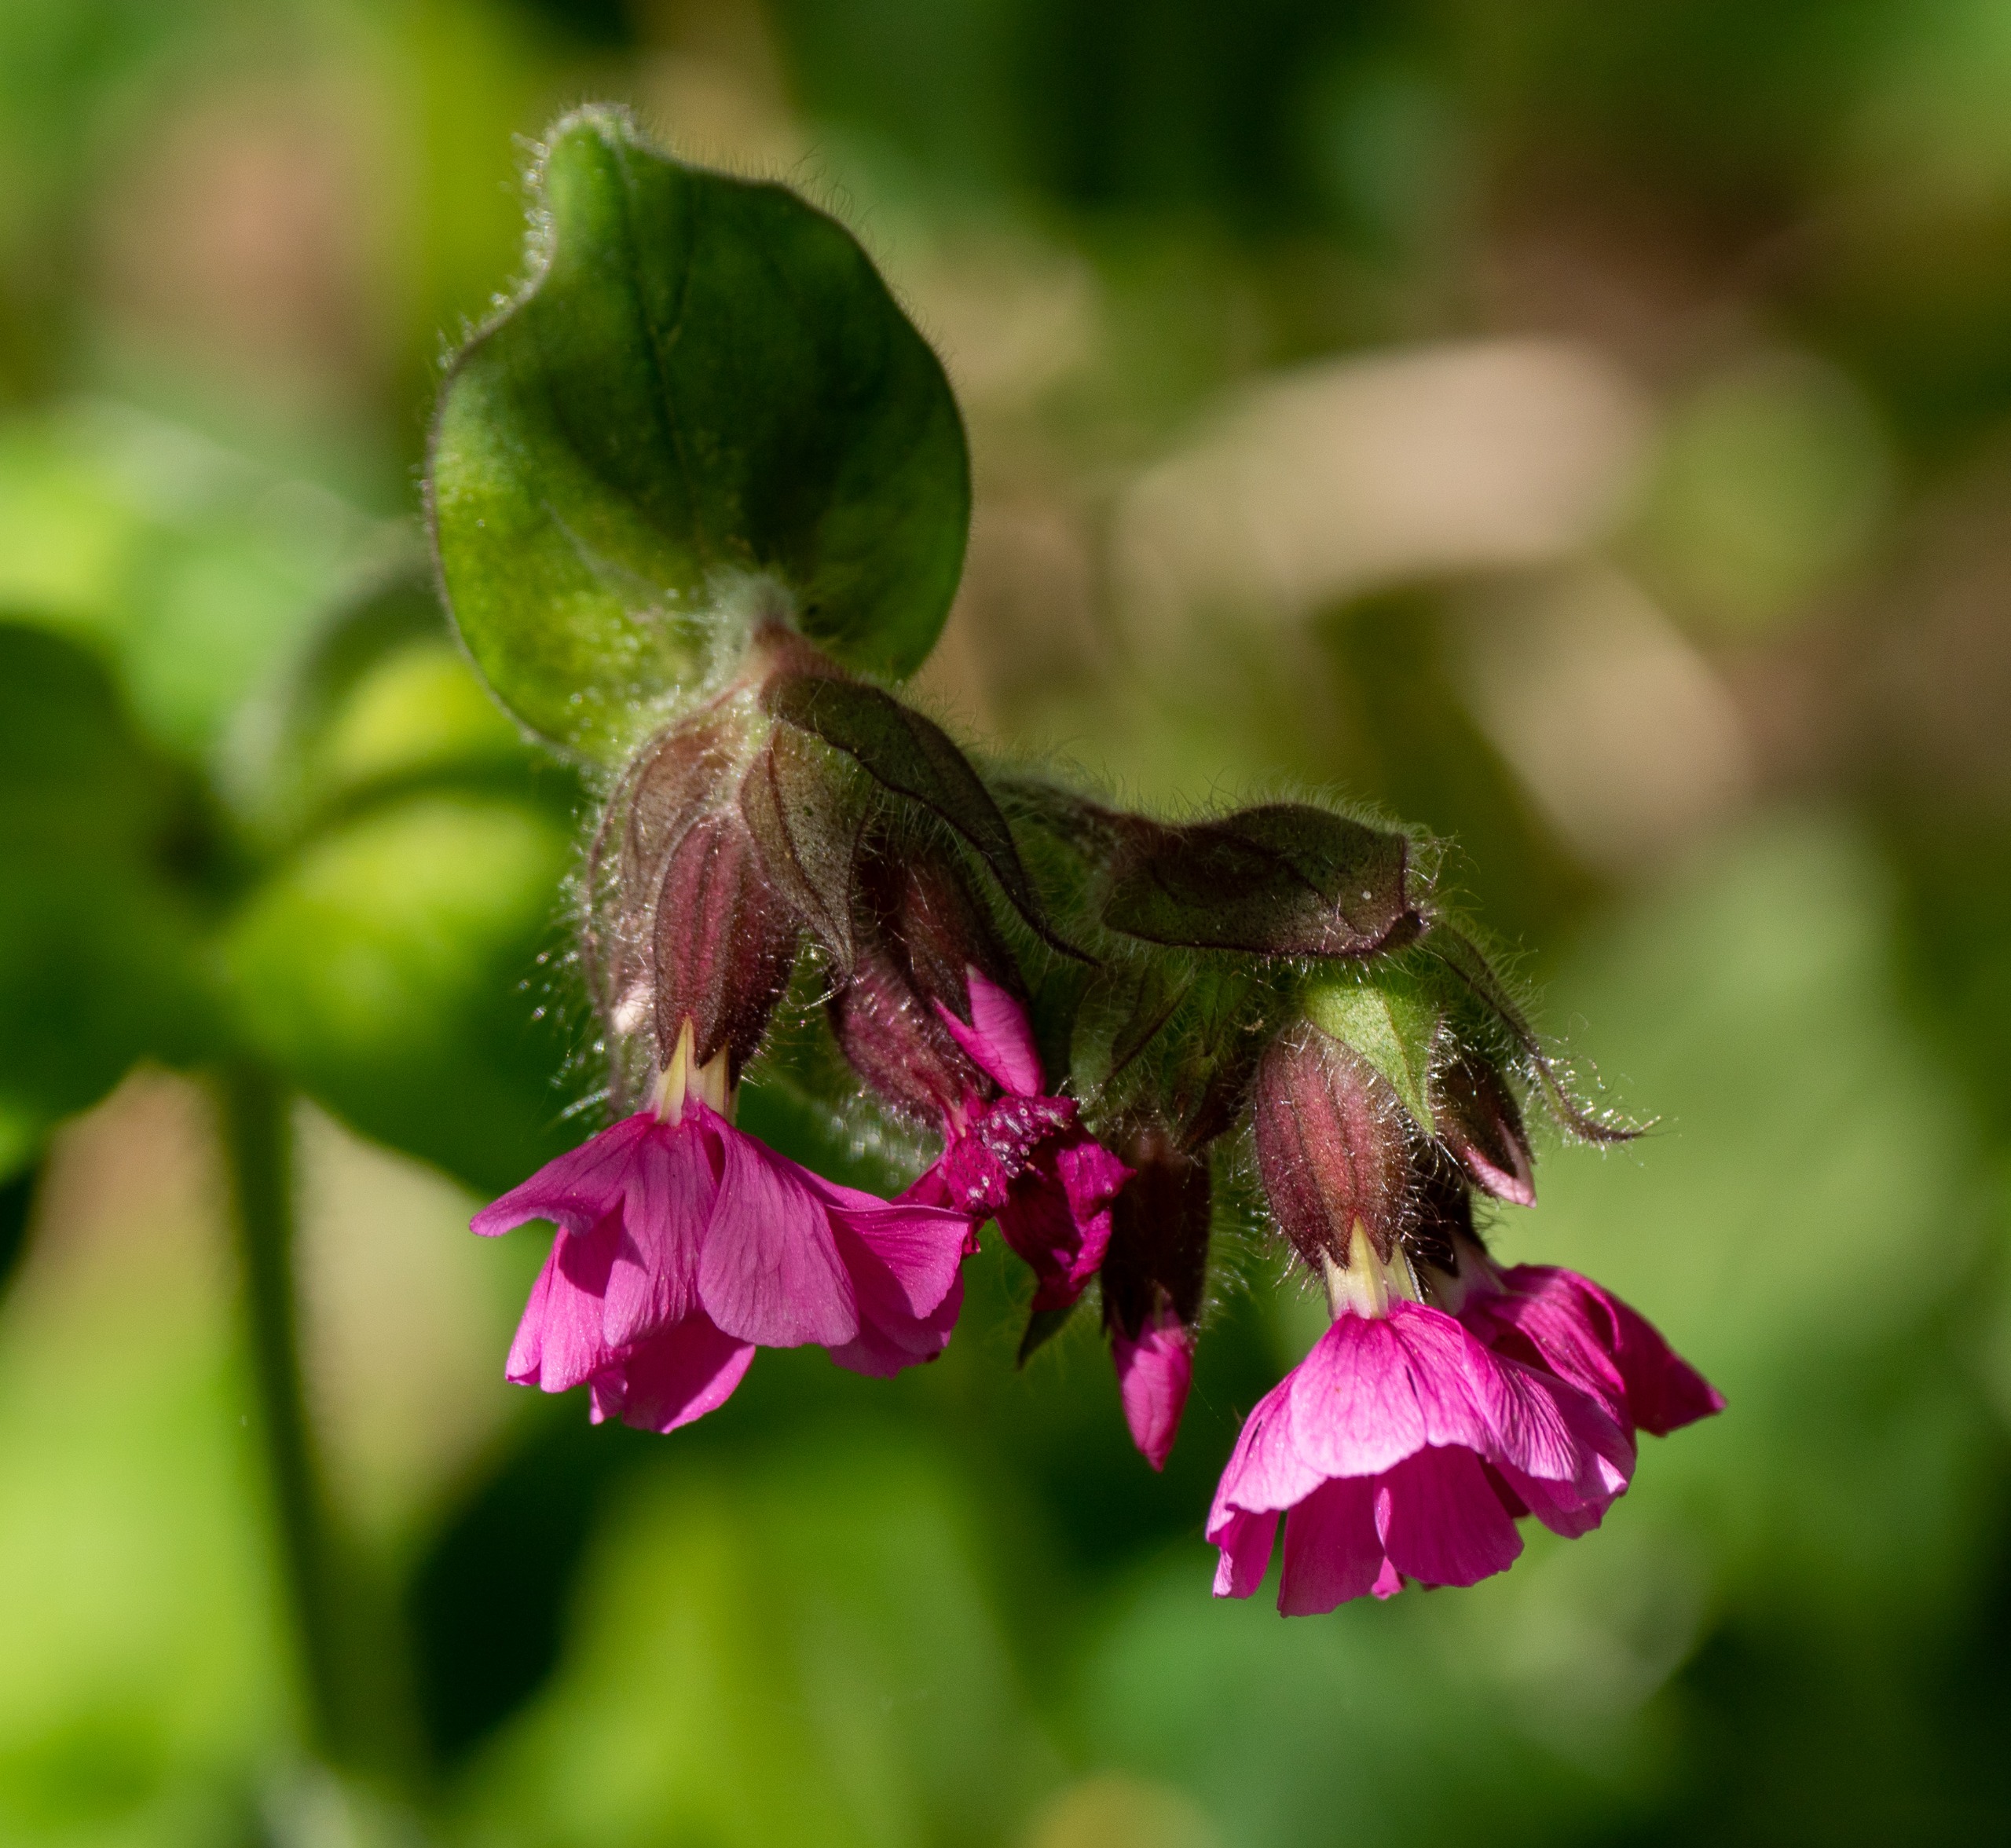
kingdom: Plantae
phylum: Tracheophyta
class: Magnoliopsida
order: Caryophyllales
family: Caryophyllaceae
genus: Silene
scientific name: Silene dioica
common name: Dagpragtstjerne
